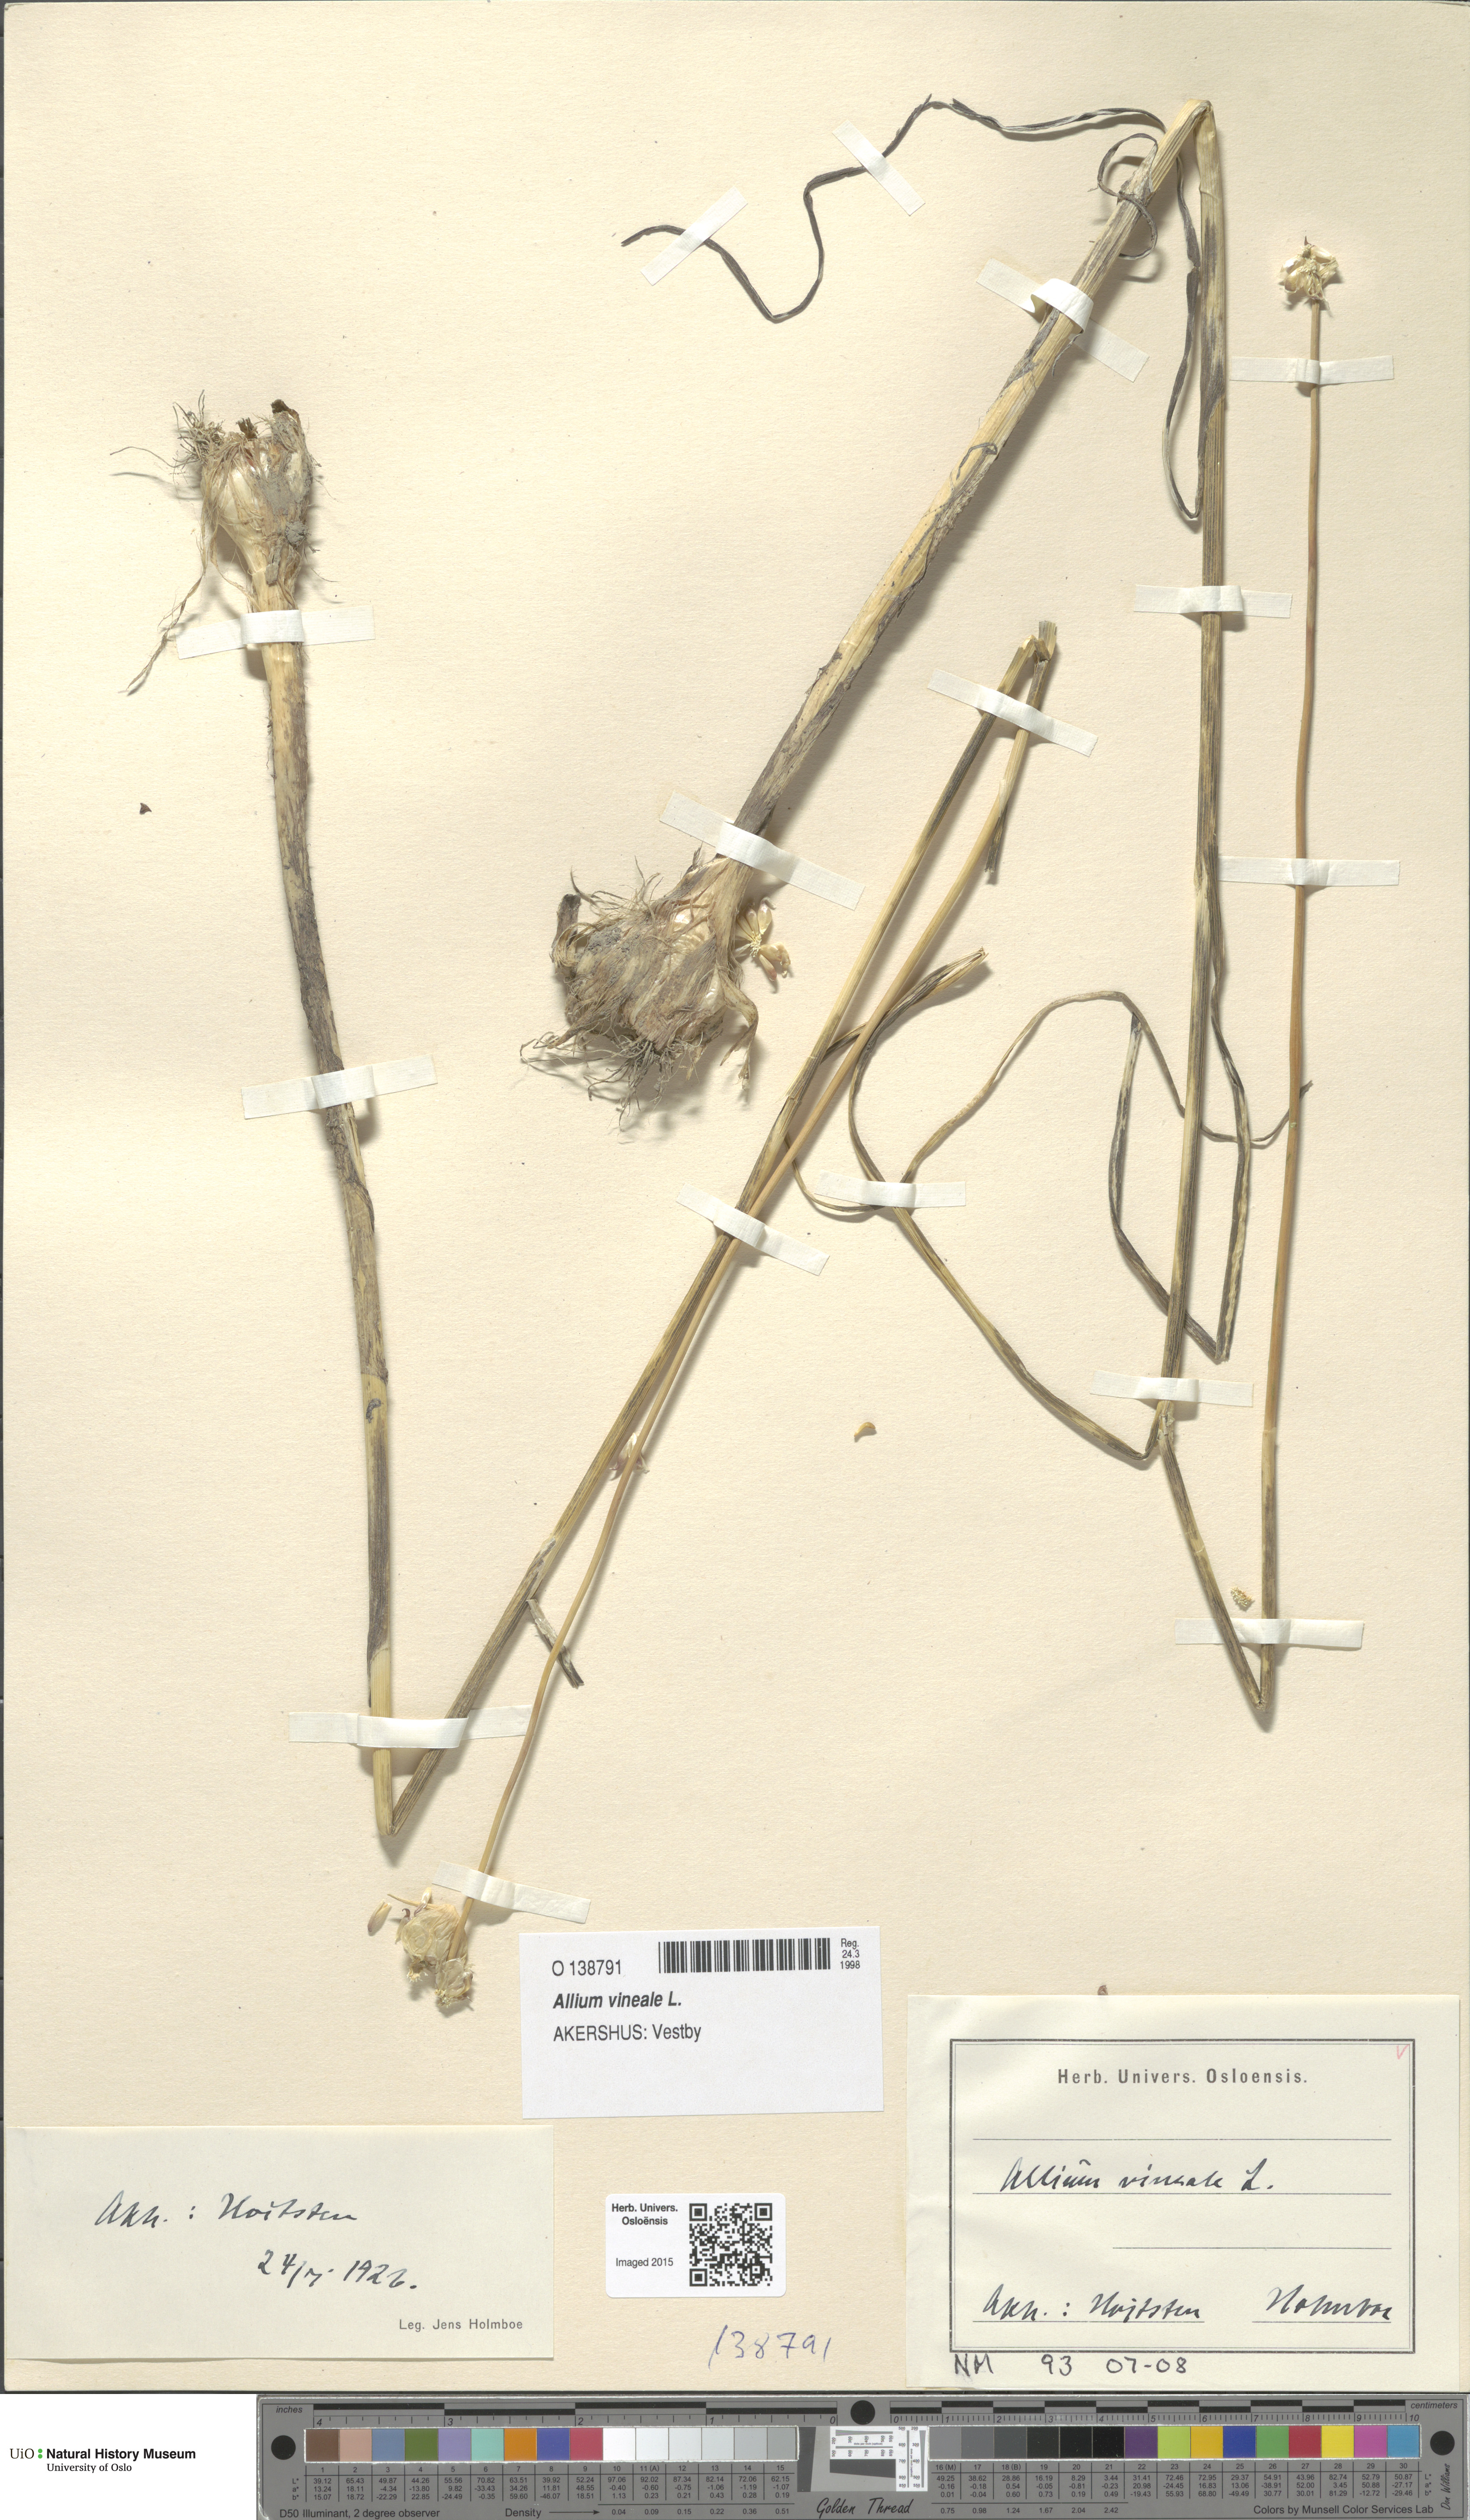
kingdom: Plantae
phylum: Tracheophyta
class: Liliopsida
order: Asparagales
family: Amaryllidaceae
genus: Allium
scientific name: Allium vineale
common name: Crow garlic
